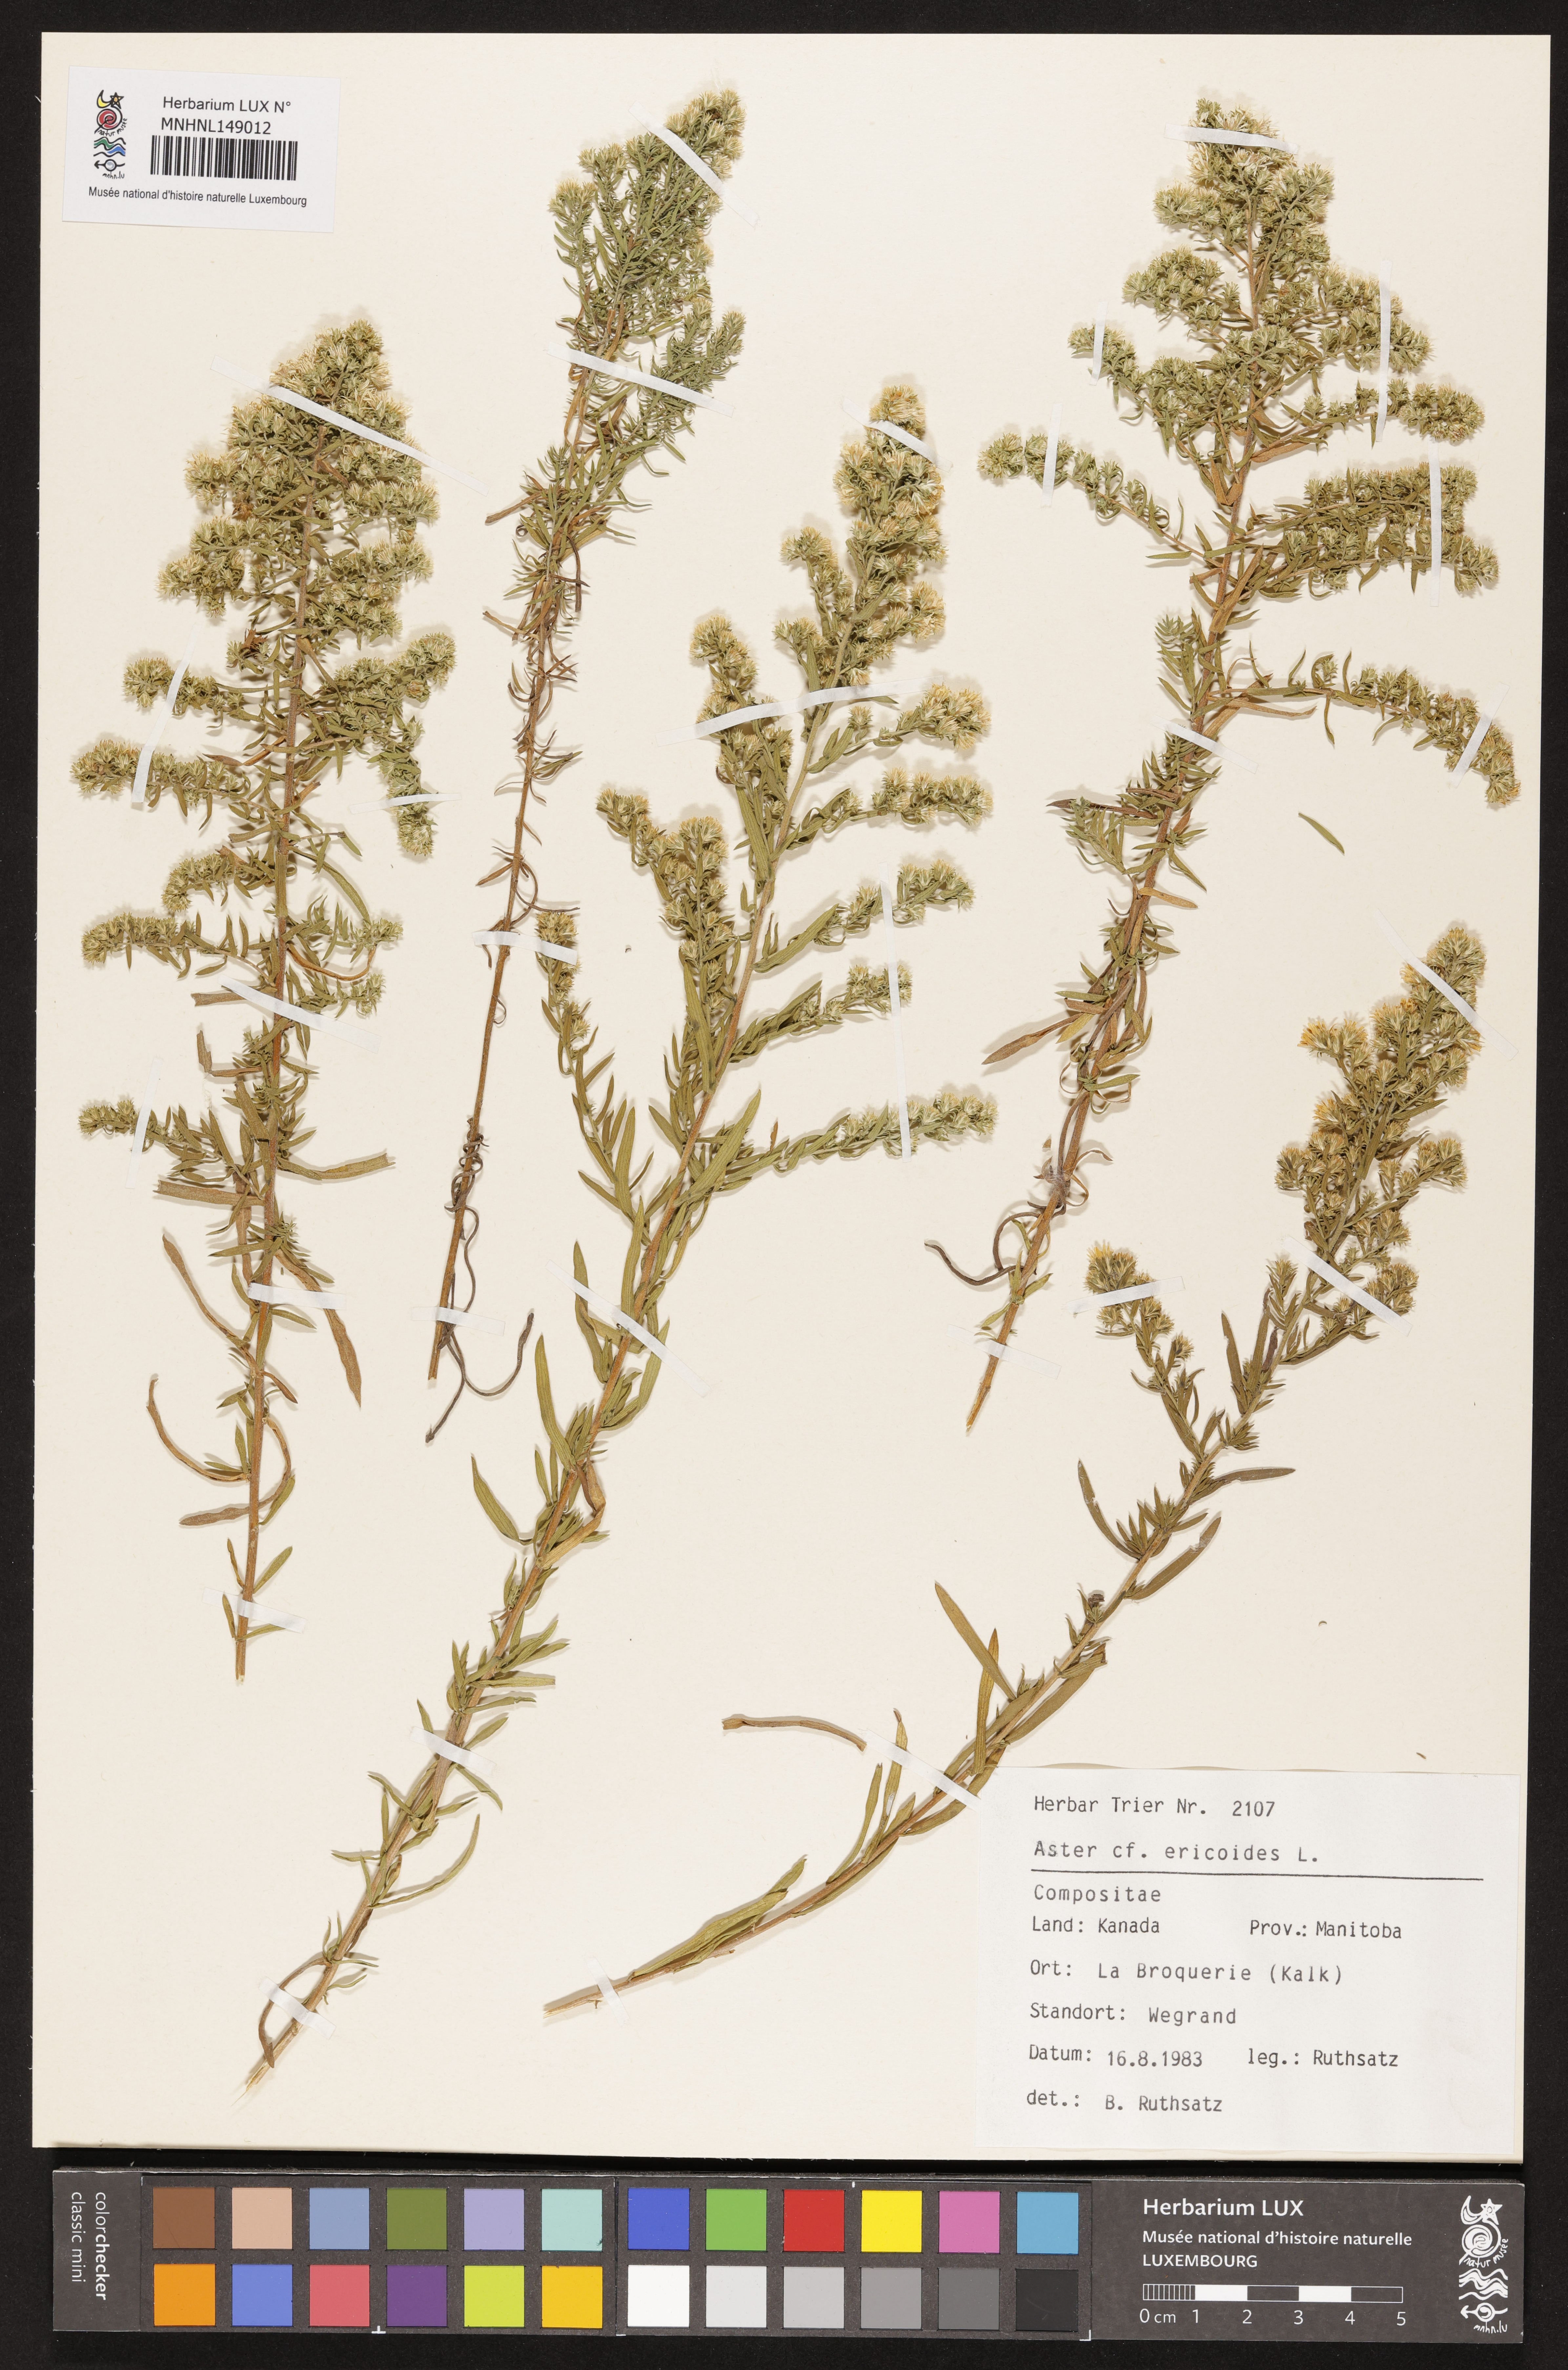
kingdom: Plantae
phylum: Tracheophyta
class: Magnoliopsida
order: Asterales
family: Asteraceae
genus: Symphyotrichum
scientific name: Symphyotrichum ericoides
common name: Heath aster
